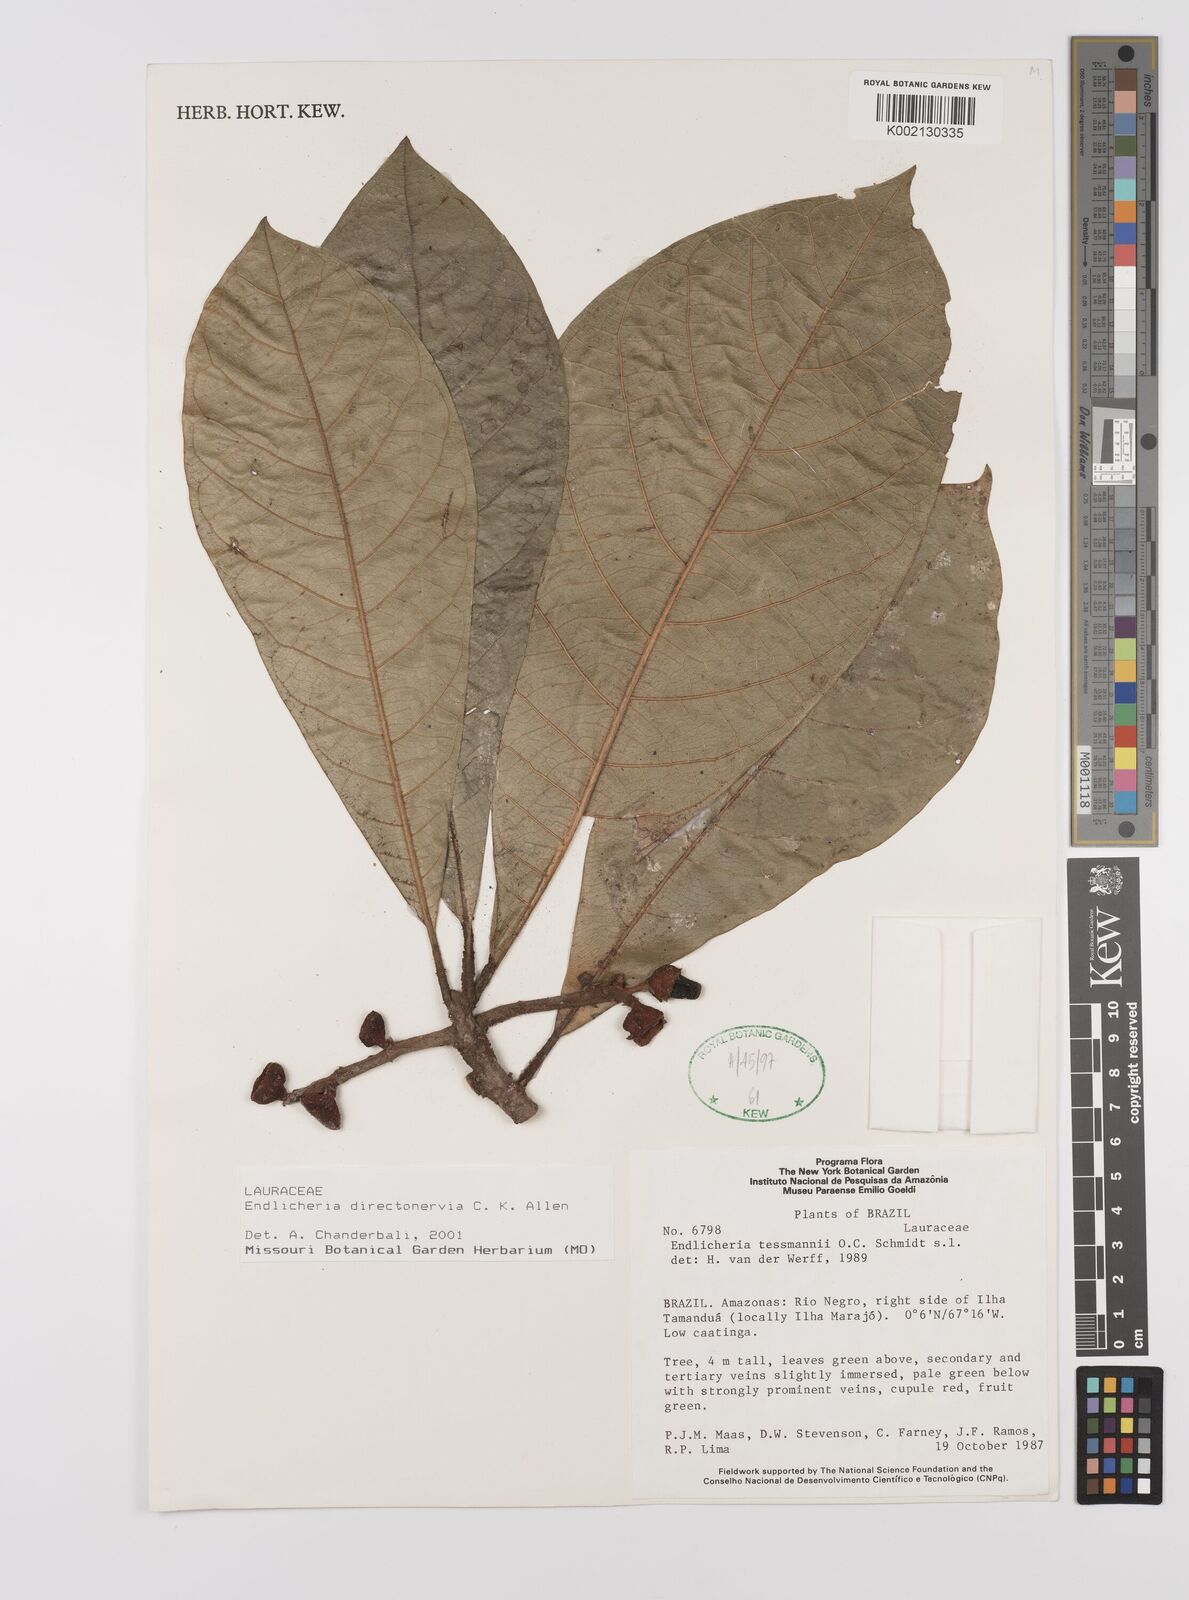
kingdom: Plantae
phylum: Tracheophyta
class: Magnoliopsida
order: Laurales
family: Lauraceae
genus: Endlicheria
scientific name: Endlicheria directonervia
